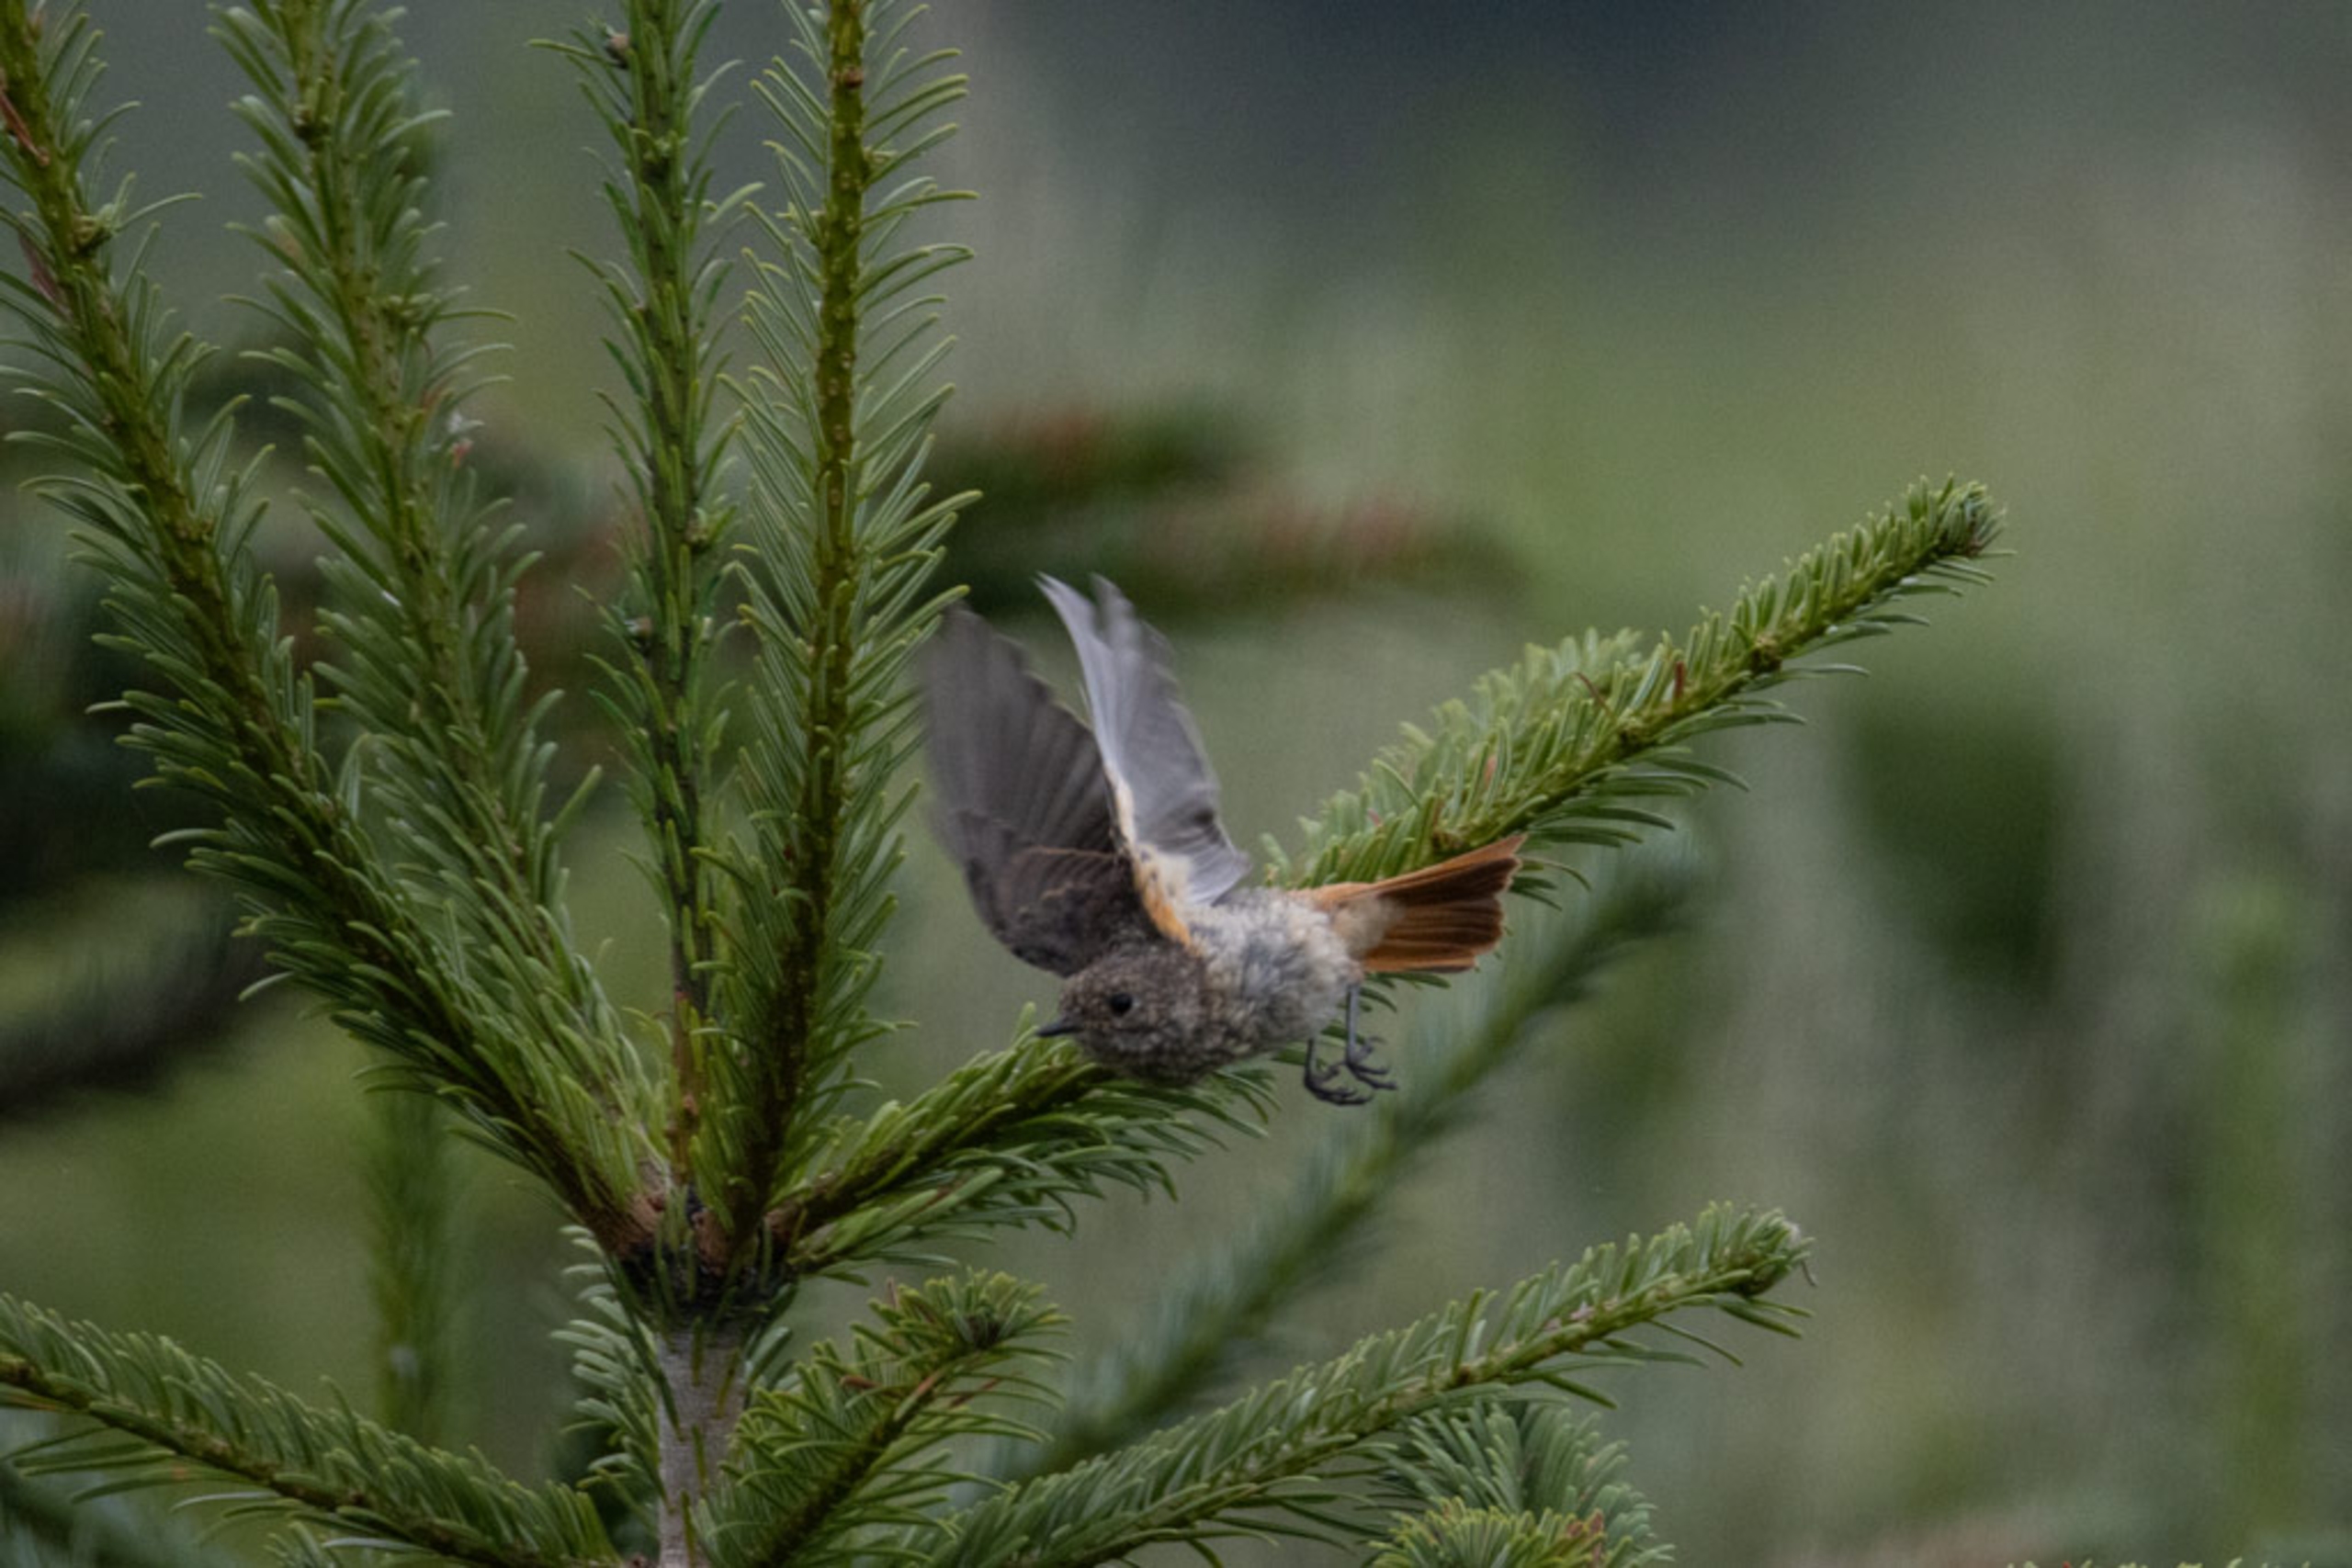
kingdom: Animalia
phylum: Chordata
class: Aves
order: Passeriformes
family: Muscicapidae
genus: Phoenicurus
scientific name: Phoenicurus phoenicurus
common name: Rødstjert
